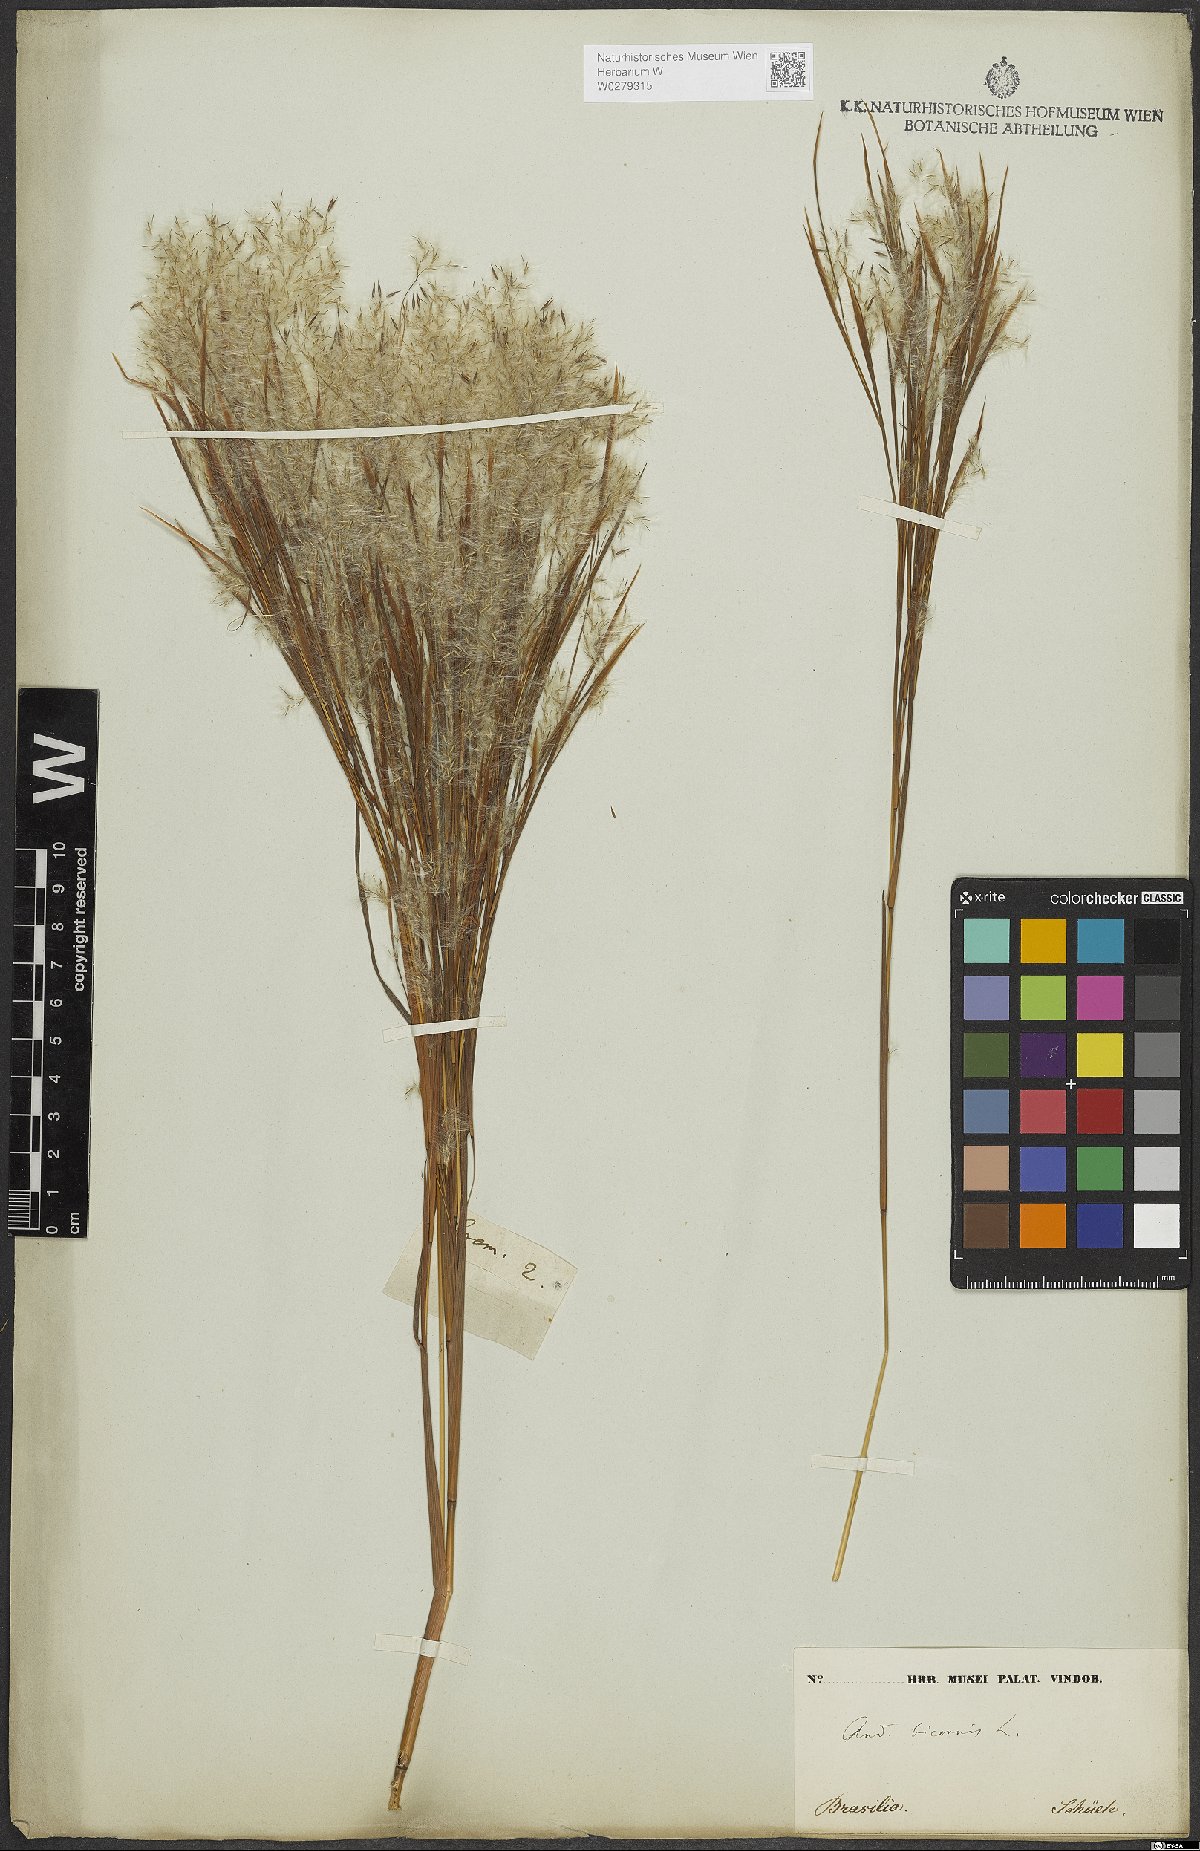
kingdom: Plantae
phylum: Tracheophyta
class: Liliopsida
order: Poales
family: Poaceae
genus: Andropogon
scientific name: Andropogon bicornis
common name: West indian foxtail grass
